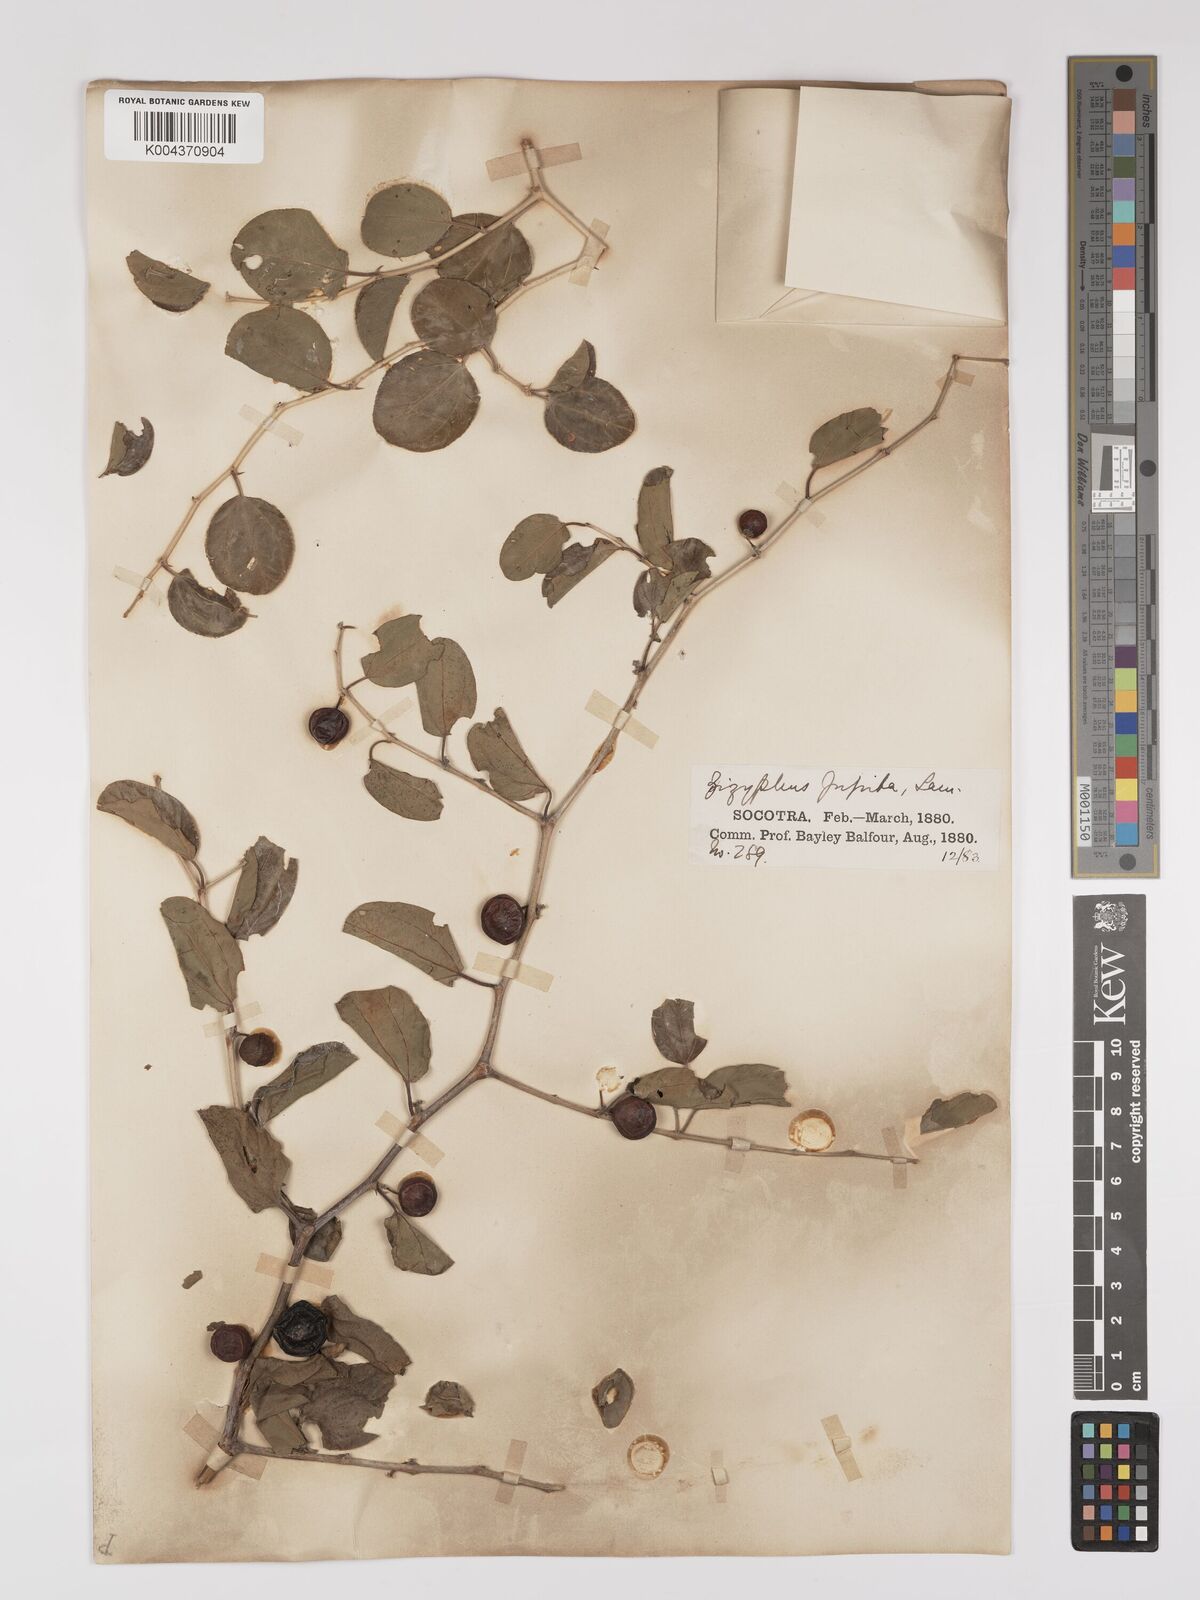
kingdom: Plantae
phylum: Tracheophyta
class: Magnoliopsida
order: Rosales
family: Rhamnaceae
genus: Ziziphus
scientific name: Ziziphus spina-christi
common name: Syrian christ-thorn
